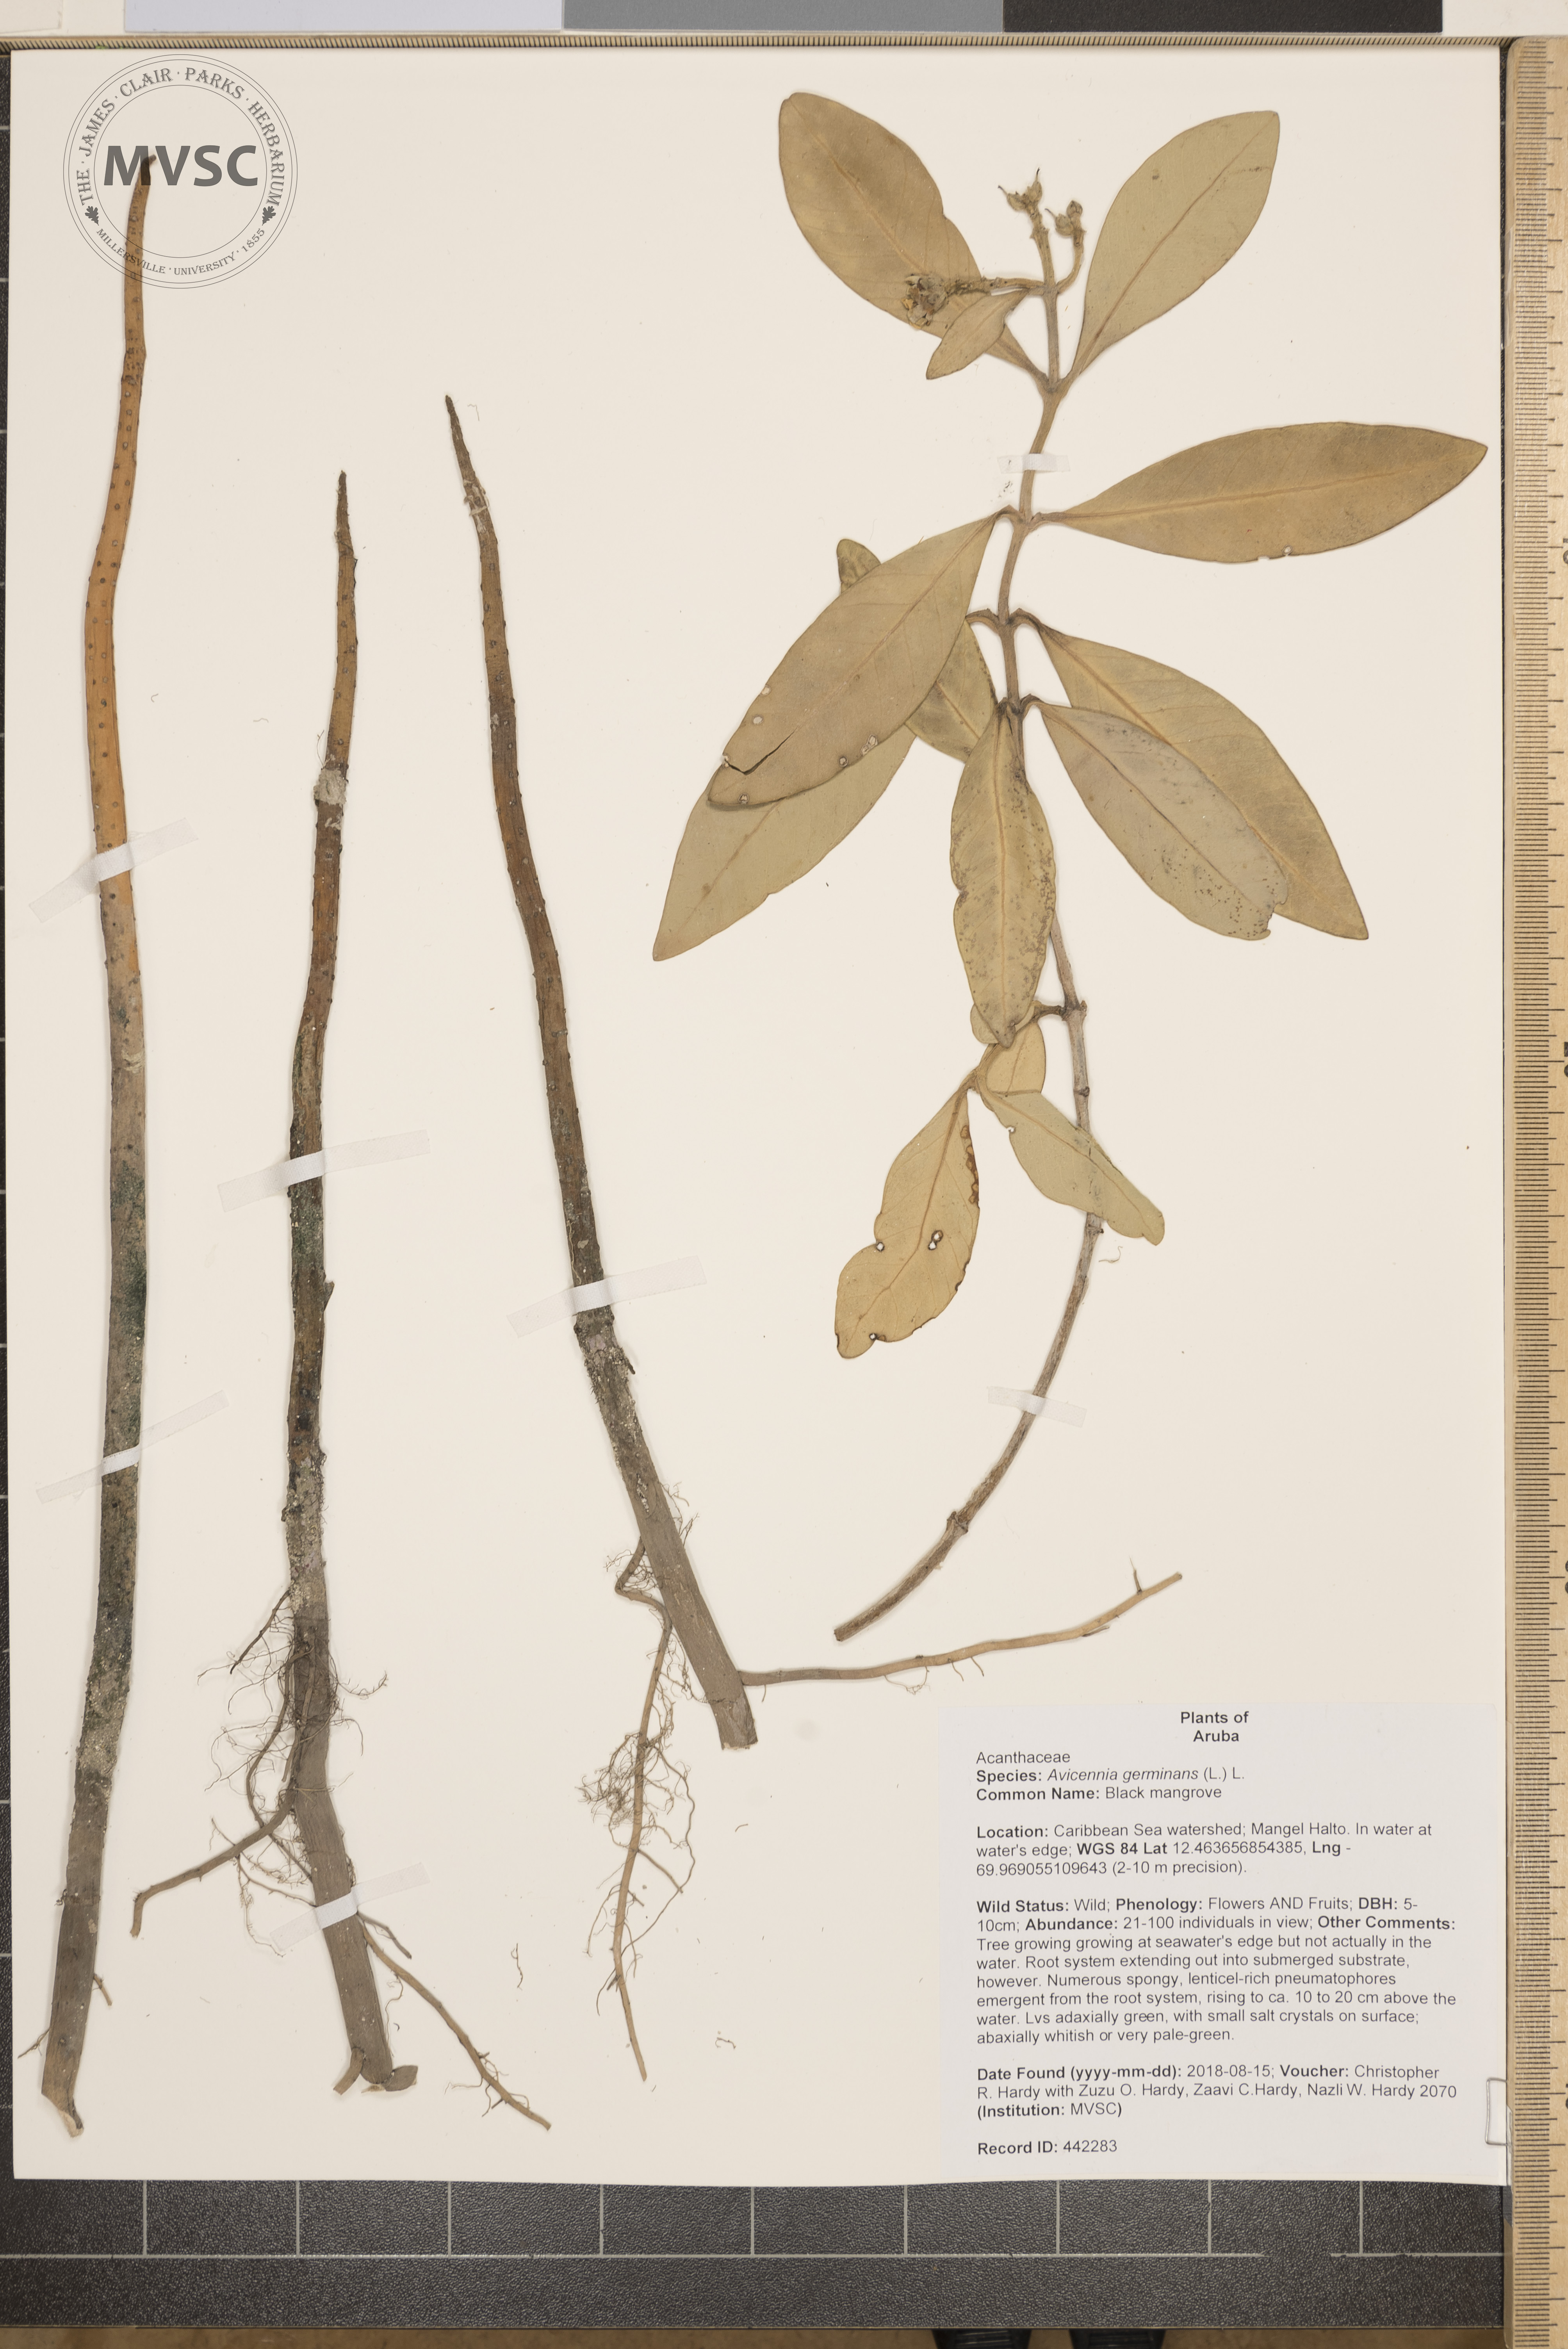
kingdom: Plantae
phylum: Tracheophyta
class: Magnoliopsida
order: Lamiales
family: Acanthaceae
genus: Avicennia
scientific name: Avicennia germinans
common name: Black mangrove
